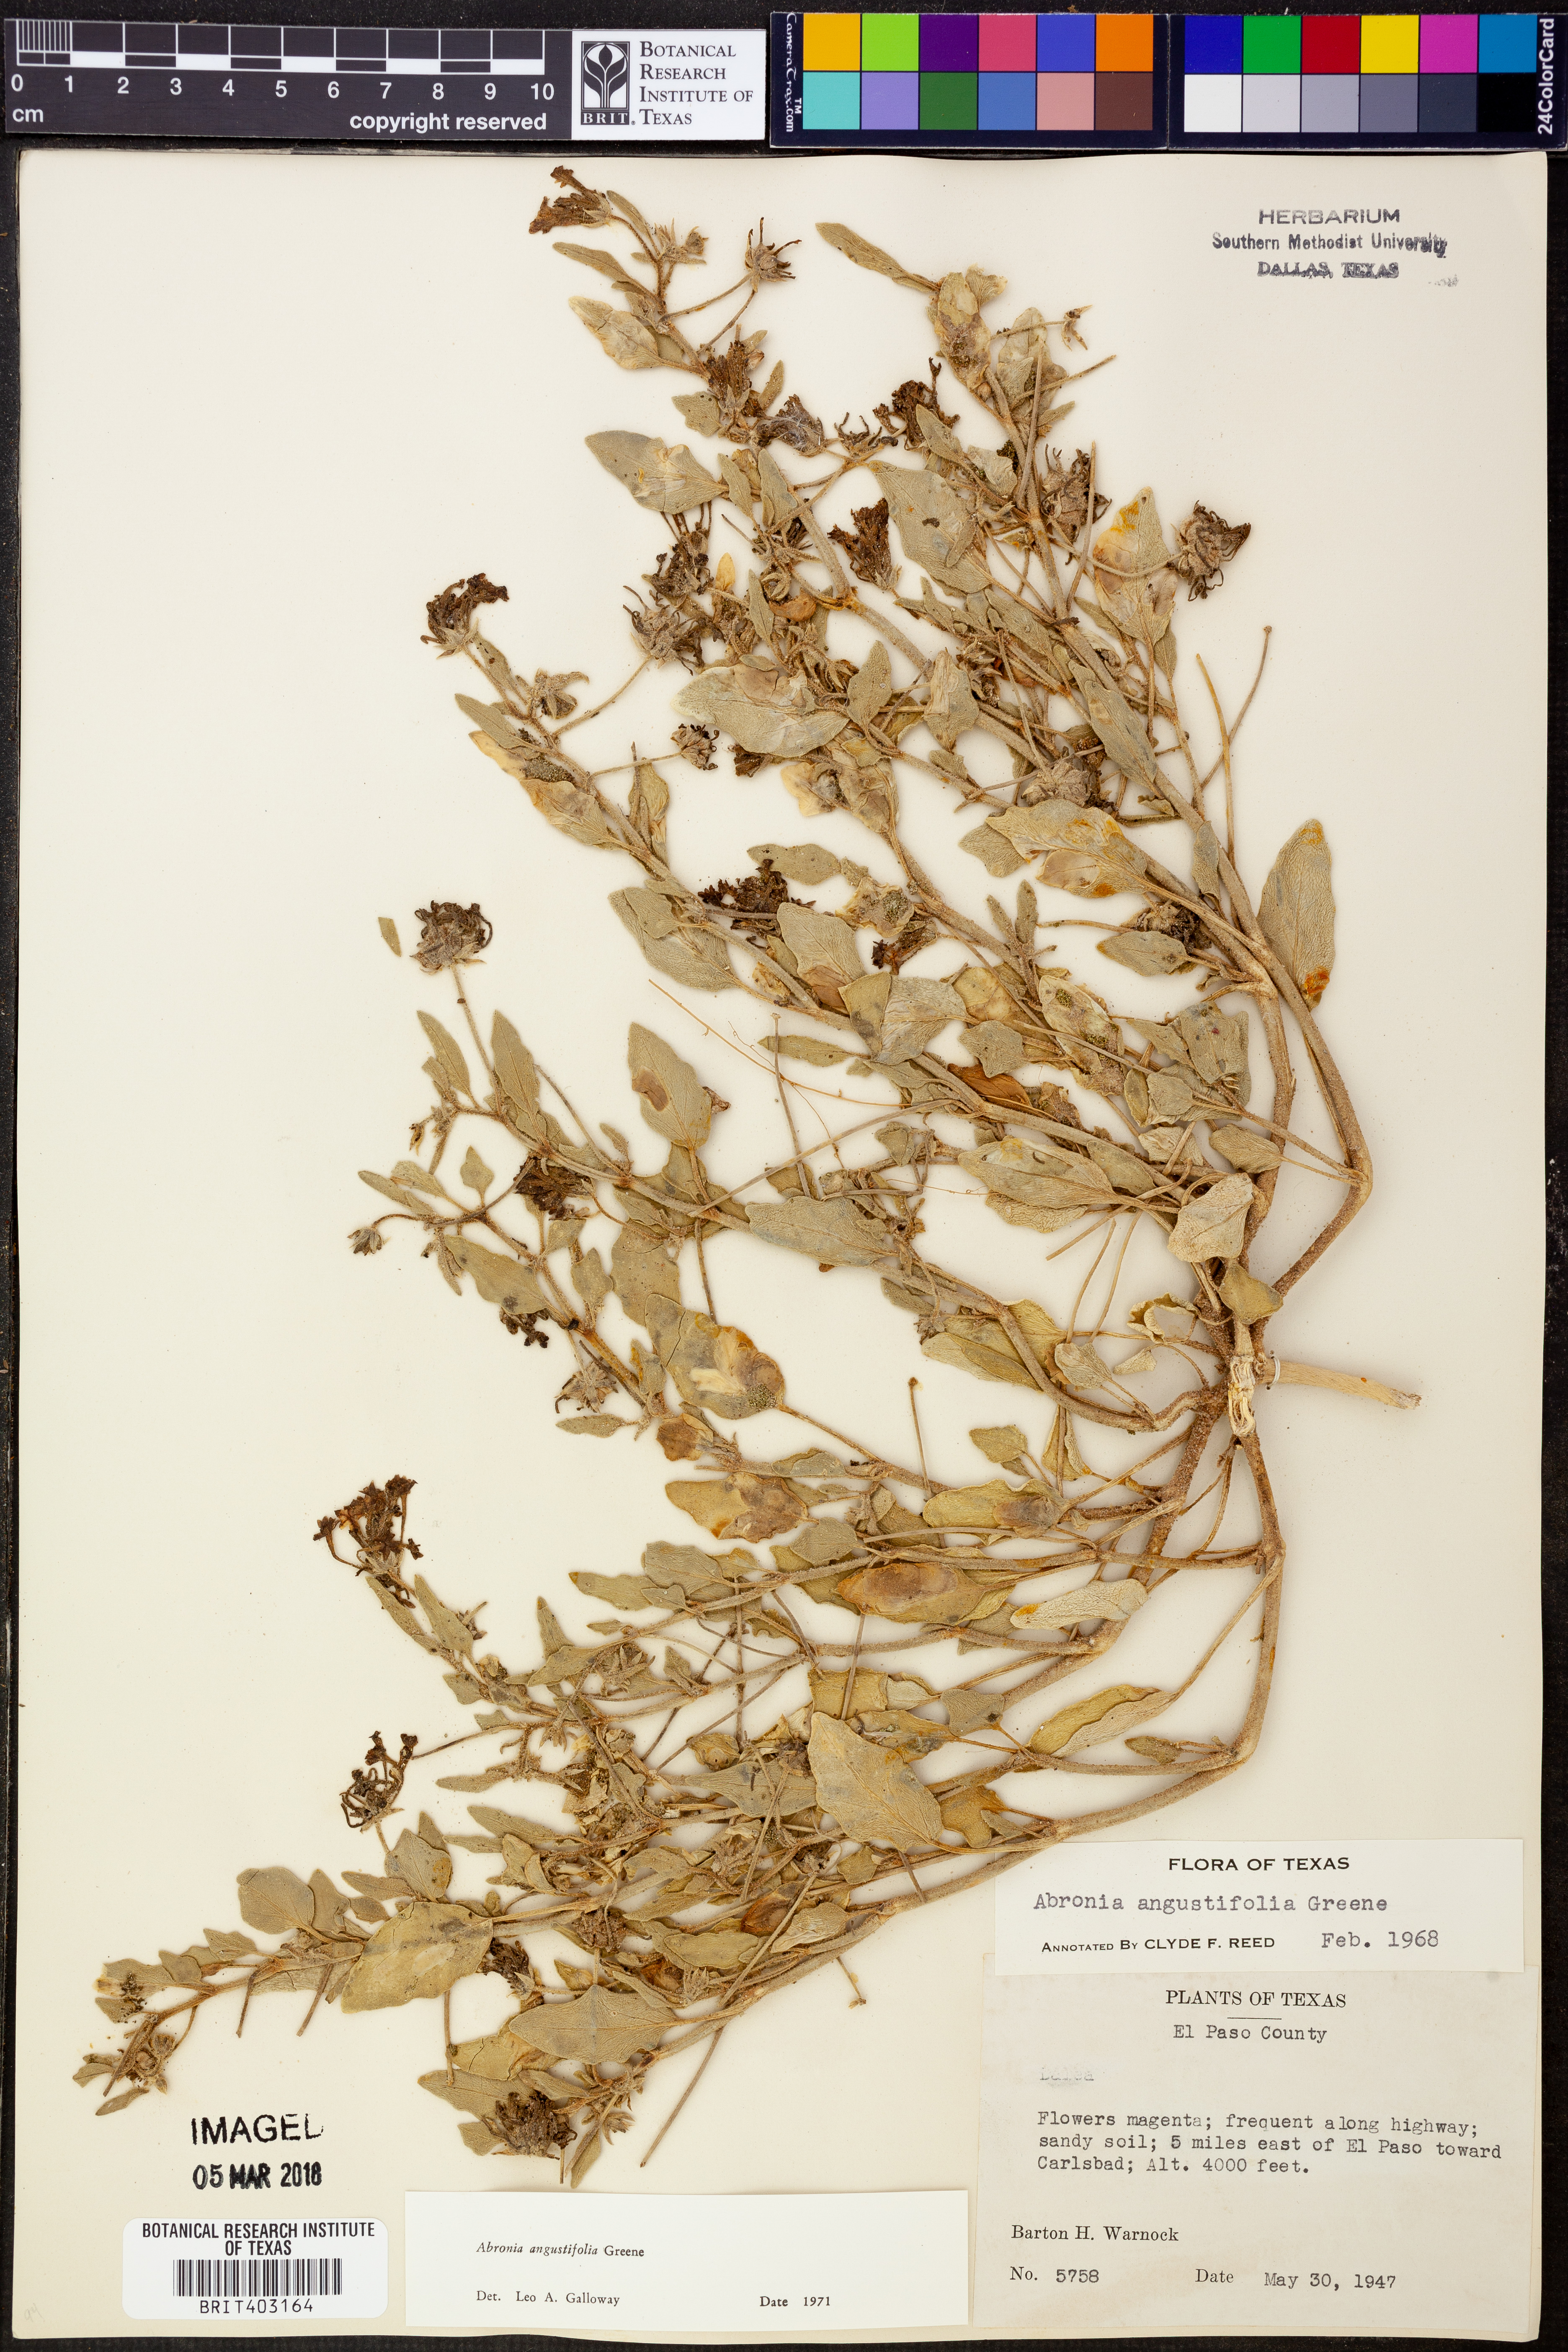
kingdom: Plantae
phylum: Tracheophyta
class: Magnoliopsida
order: Caryophyllales
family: Nyctaginaceae
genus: Abronia
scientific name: Abronia angustifolia
